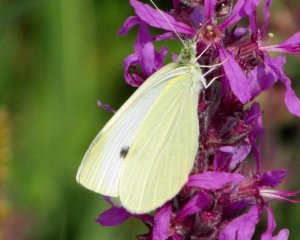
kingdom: Animalia
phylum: Arthropoda
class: Insecta
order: Lepidoptera
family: Pieridae
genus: Pieris
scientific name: Pieris rapae
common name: Cabbage White
